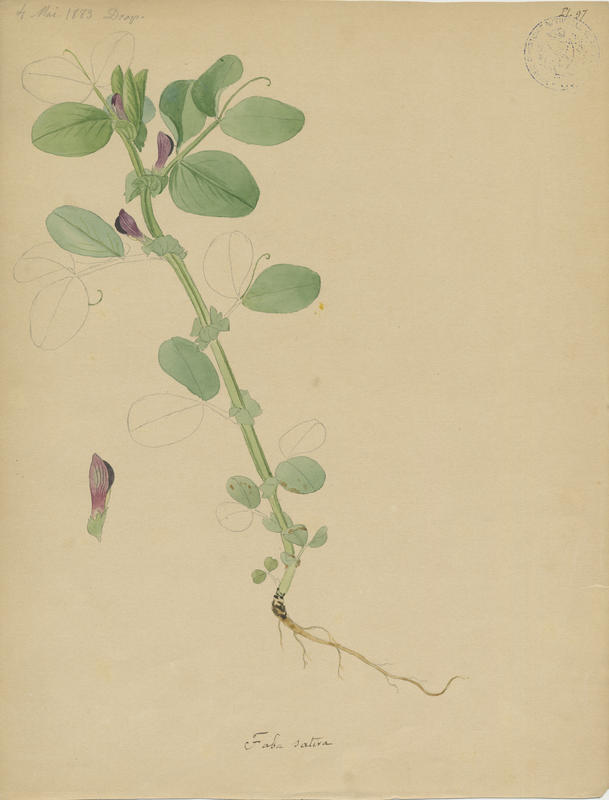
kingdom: Plantae
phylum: Tracheophyta
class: Magnoliopsida
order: Fabales
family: Fabaceae
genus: Vicia
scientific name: Vicia faba
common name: Broad bean
